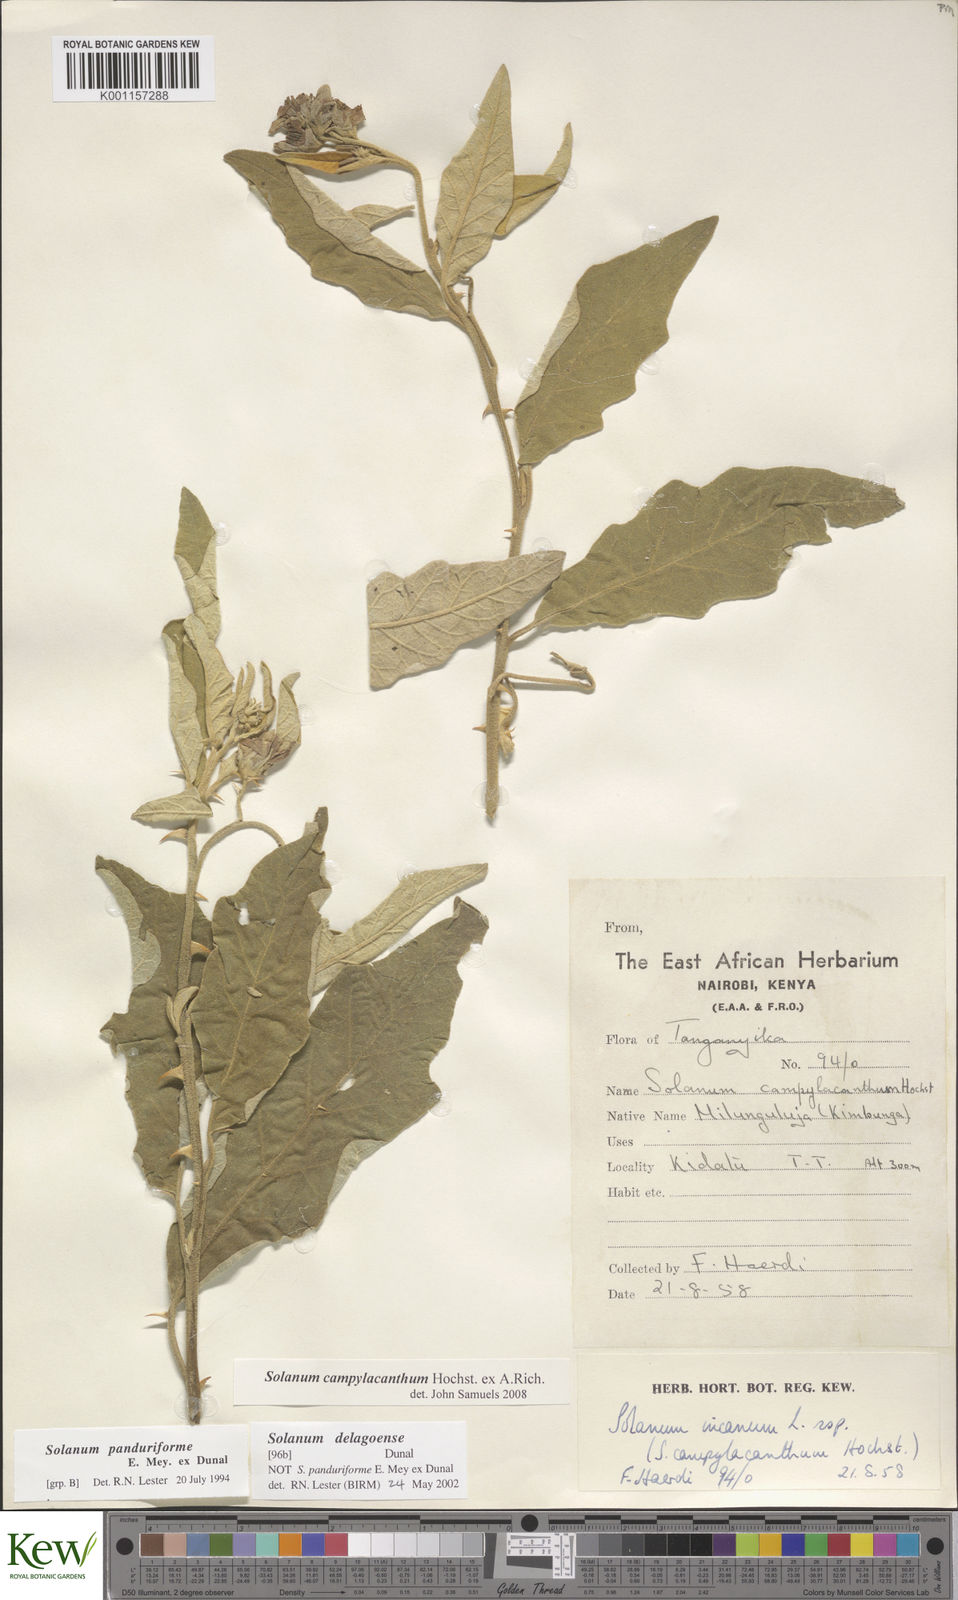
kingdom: Plantae
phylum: Tracheophyta
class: Magnoliopsida
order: Solanales
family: Solanaceae
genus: Solanum
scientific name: Solanum campylacanthum
